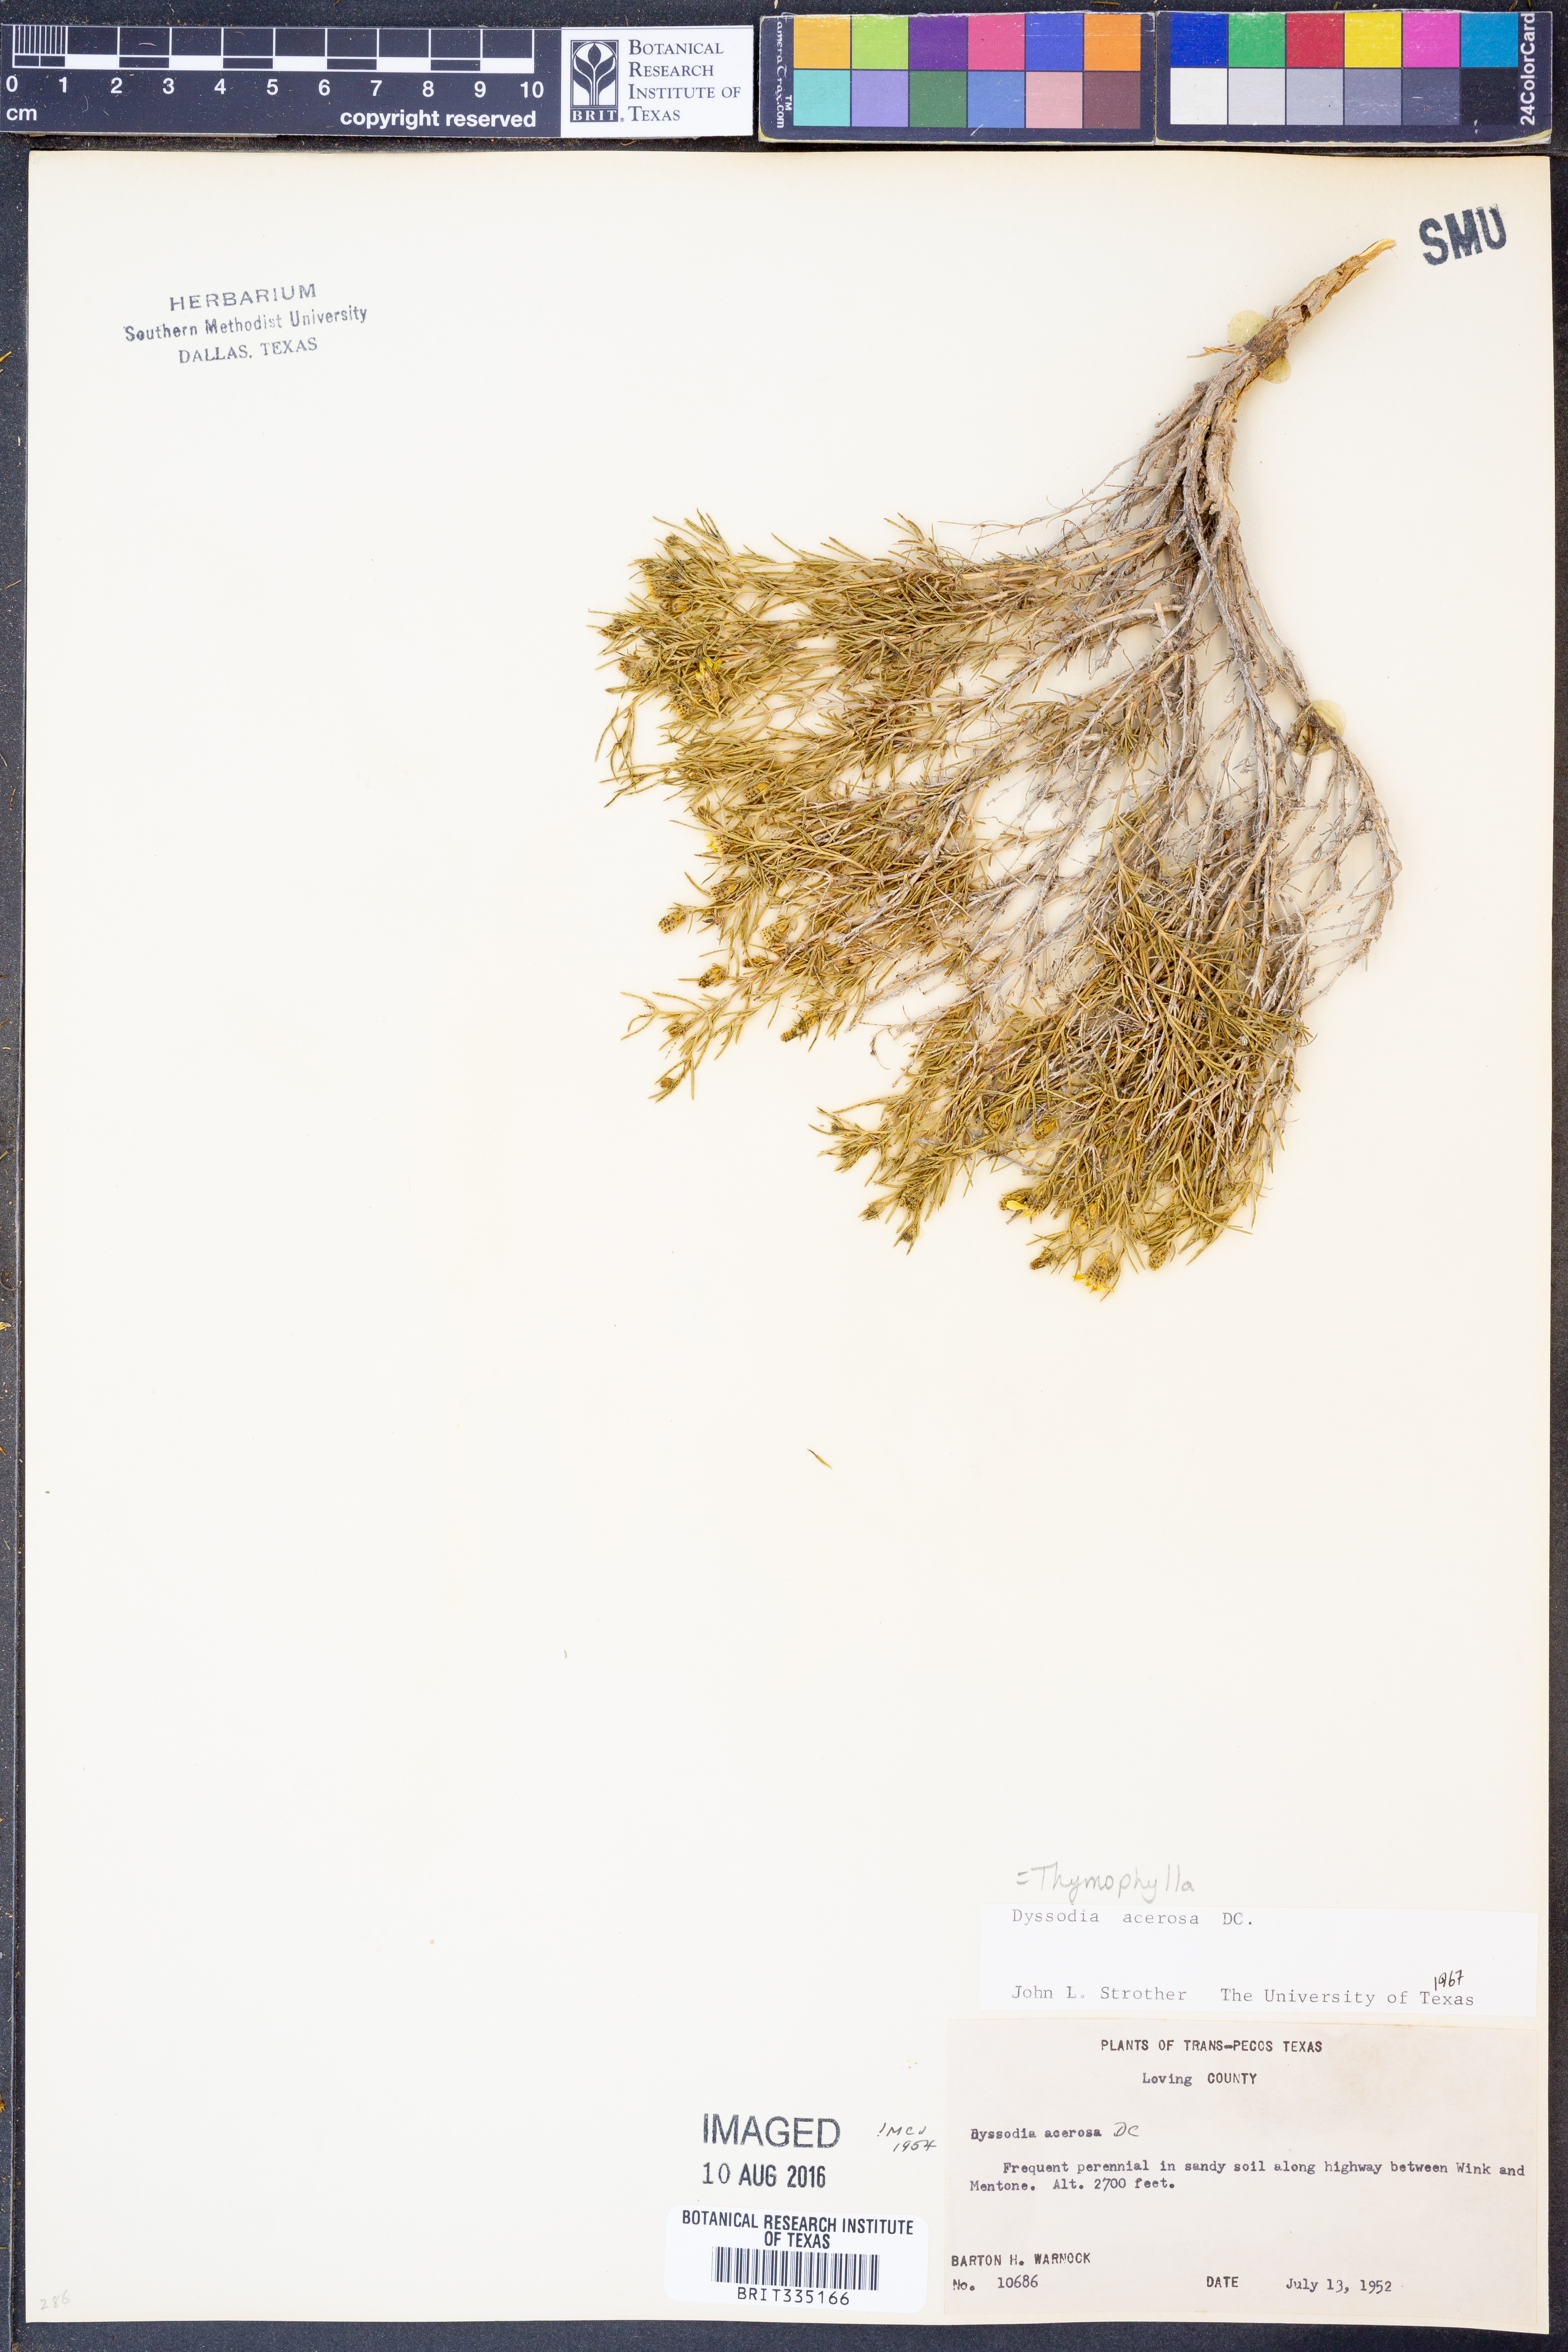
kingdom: Plantae
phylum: Tracheophyta
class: Magnoliopsida
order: Asterales
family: Asteraceae
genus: Thymophylla
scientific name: Thymophylla acerosa
